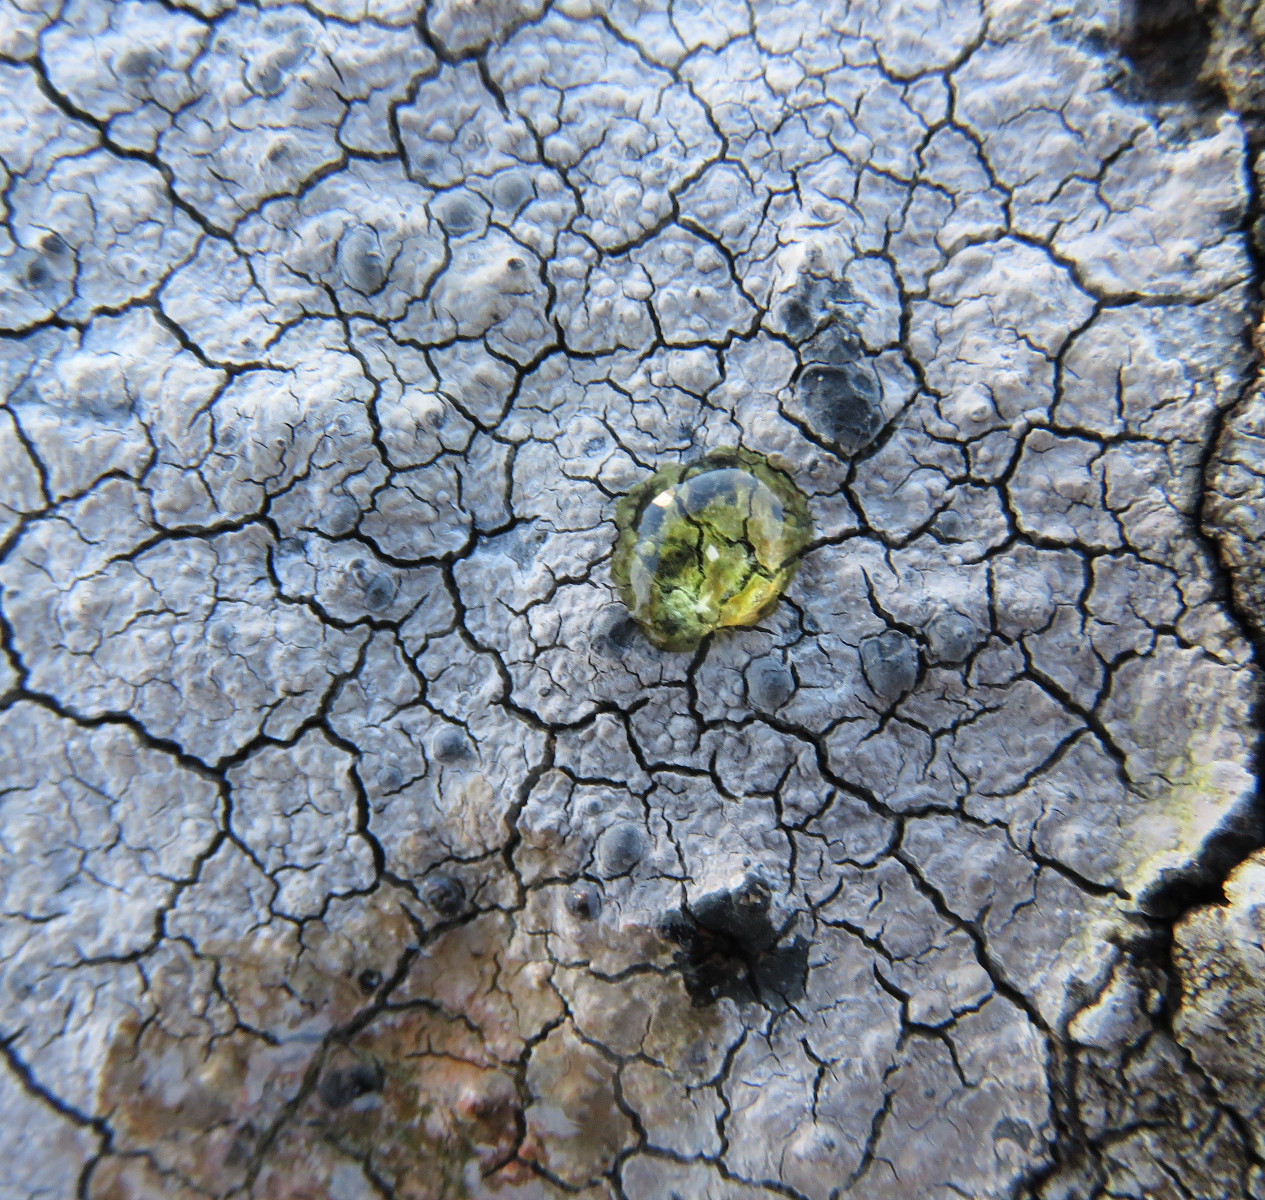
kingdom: Fungi
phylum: Ascomycota
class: Lecanoromycetes
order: Lecideales
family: Lecideaceae
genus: Lecidea
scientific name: Lecidea fuscoatra
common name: rudret skivelav
